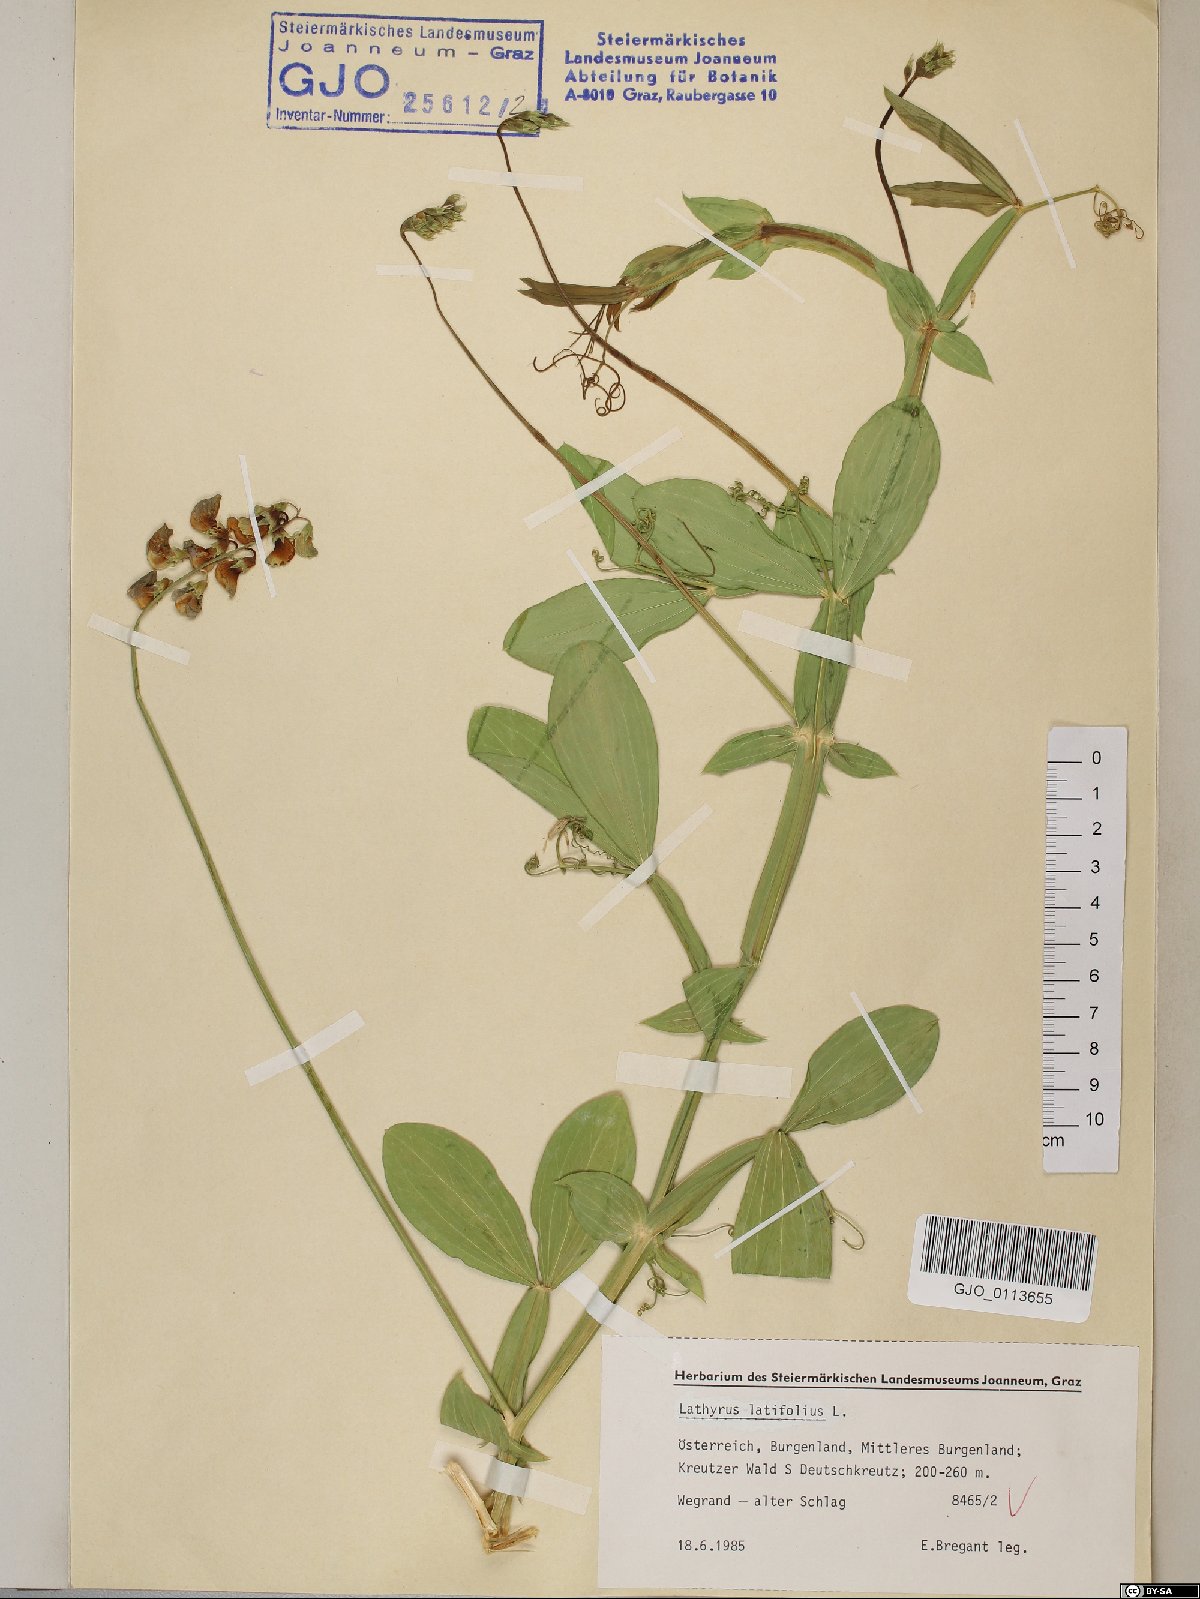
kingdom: Plantae
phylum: Tracheophyta
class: Magnoliopsida
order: Fabales
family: Fabaceae
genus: Lathyrus
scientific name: Lathyrus latifolius
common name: Perennial pea
